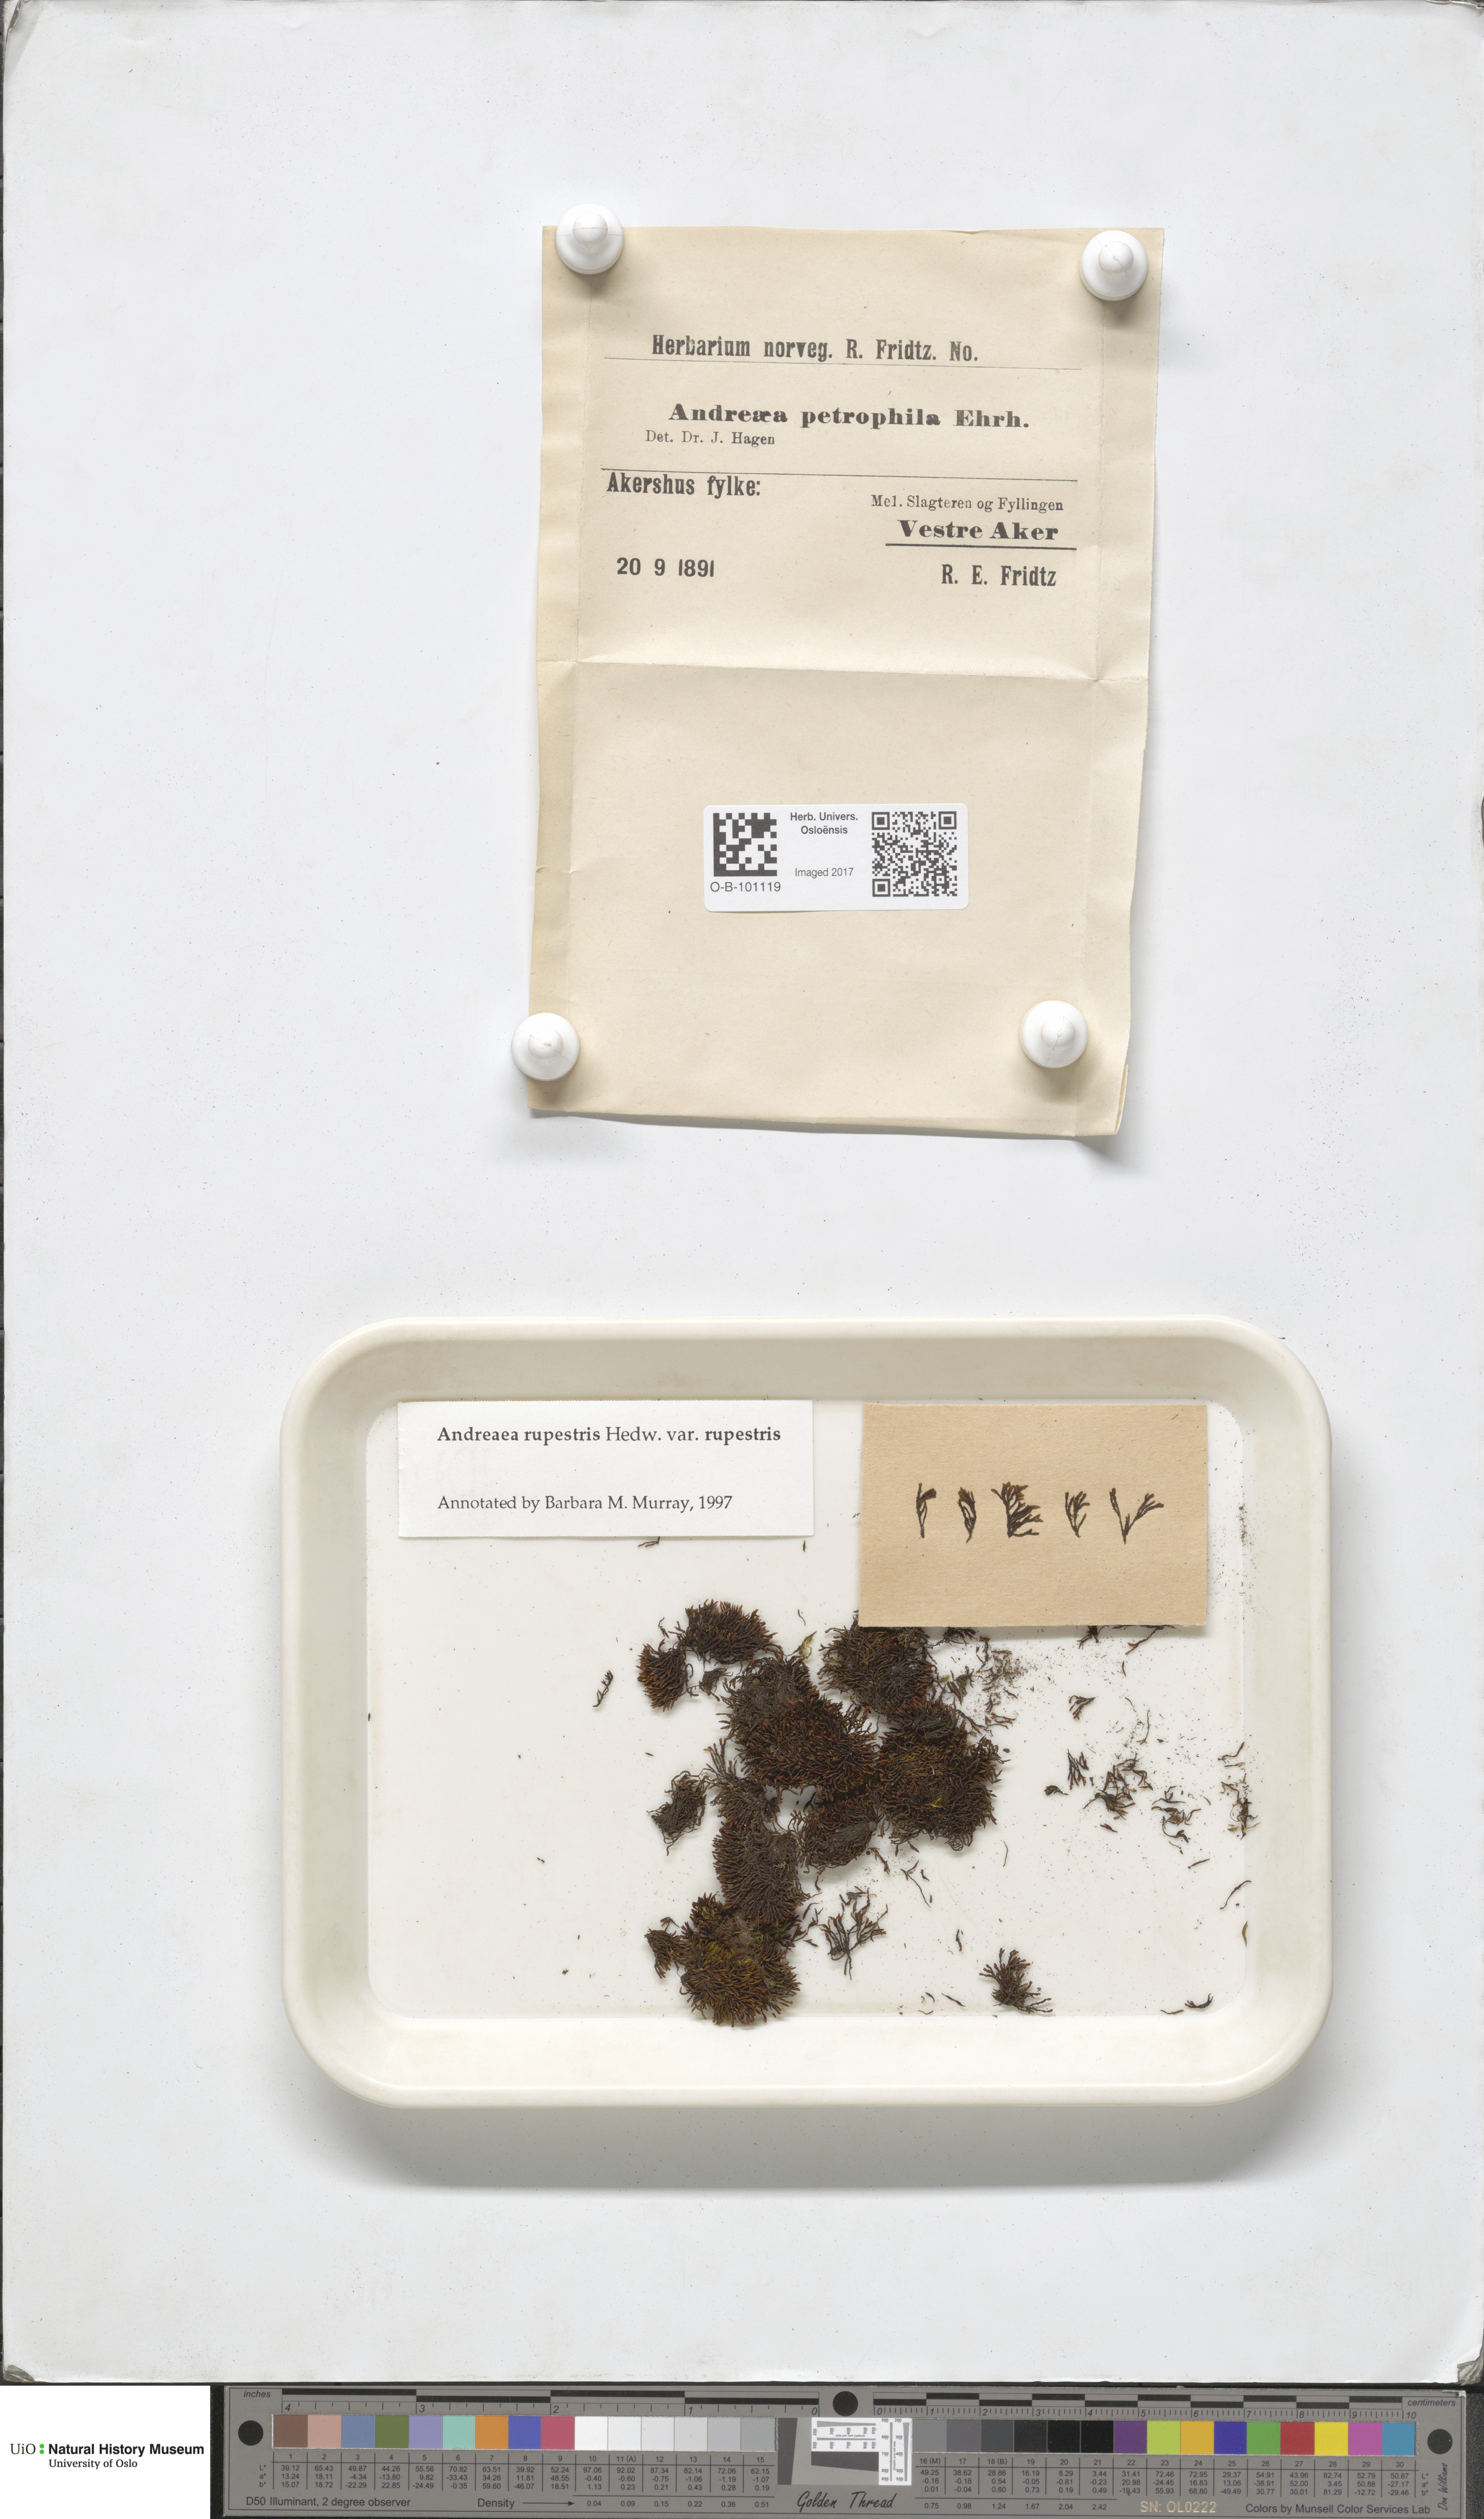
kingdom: Plantae
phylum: Bryophyta
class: Andreaeopsida
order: Andreaeales
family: Andreaeaceae
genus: Andreaea
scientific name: Andreaea rupestris
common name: Black rock moss
